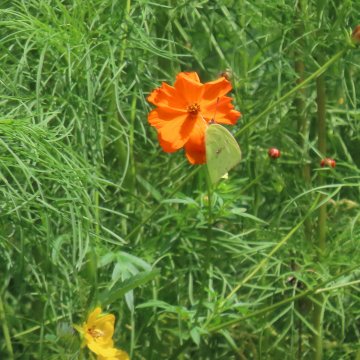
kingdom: Animalia
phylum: Arthropoda
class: Insecta
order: Lepidoptera
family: Pieridae
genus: Phoebis
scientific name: Phoebis sennae
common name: Cloudless Sulphur
